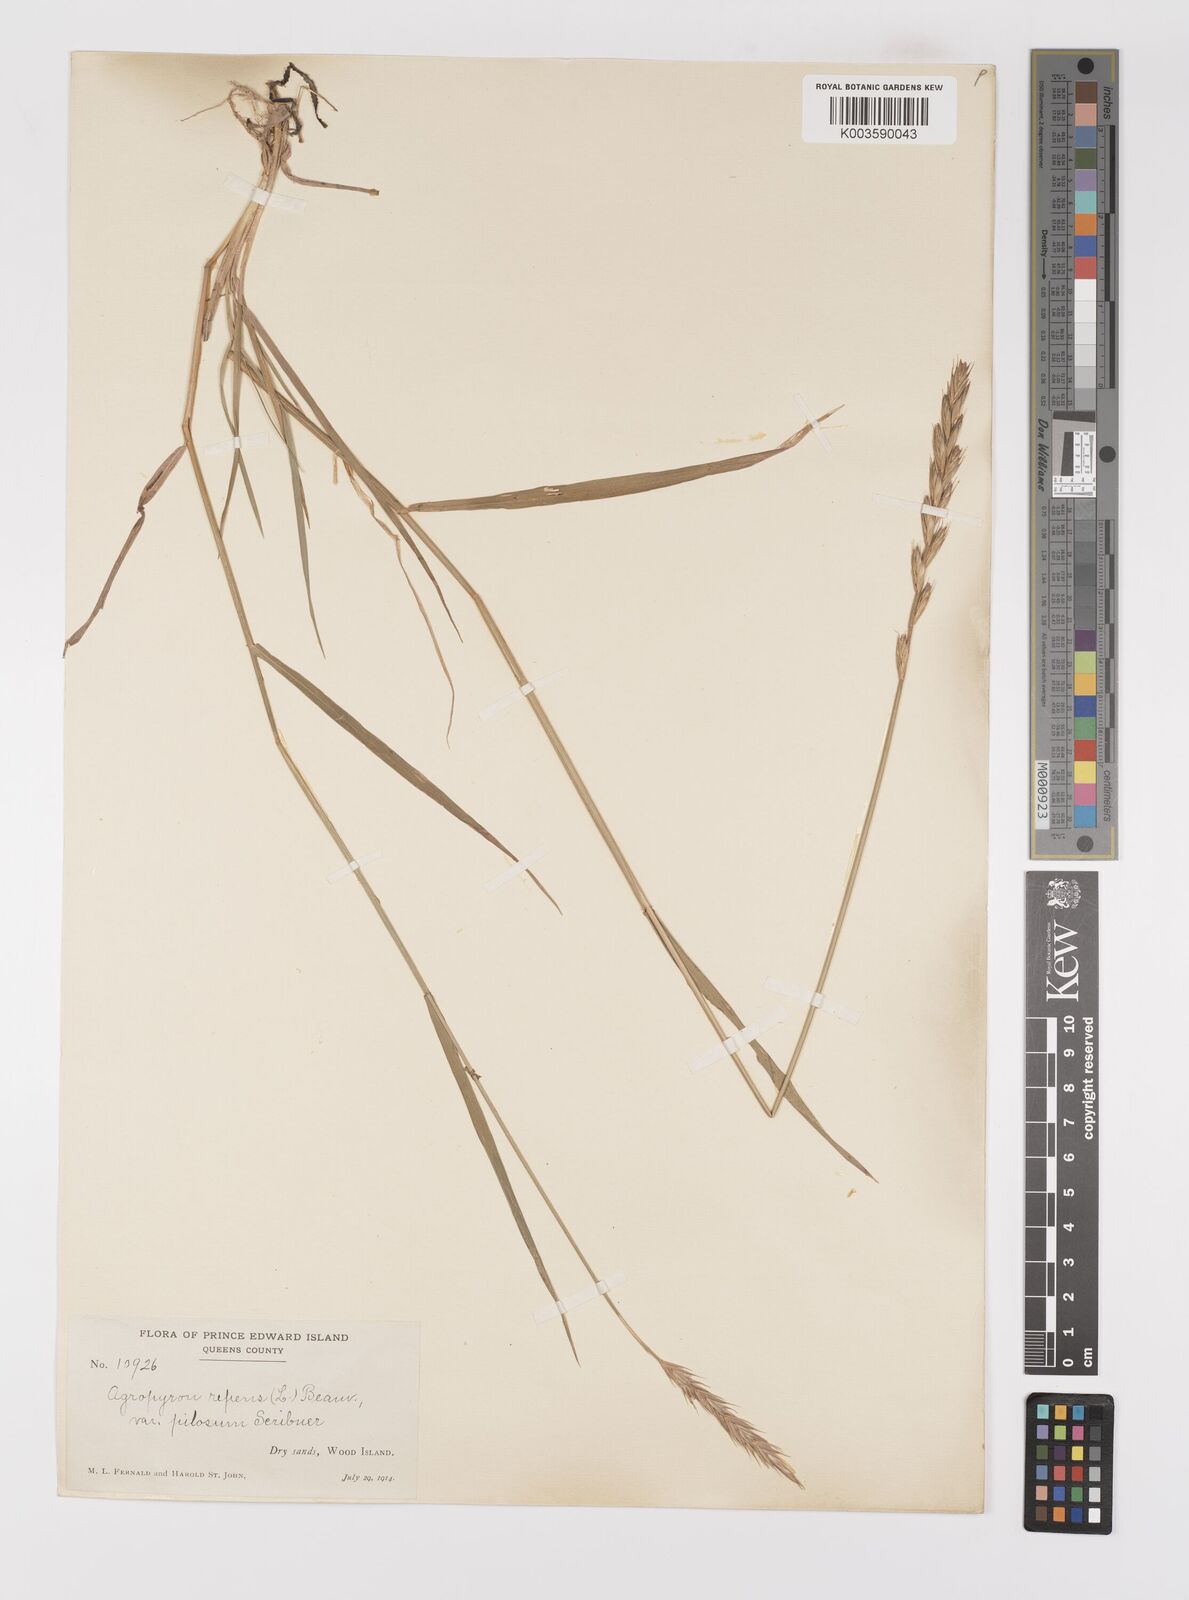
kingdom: Plantae
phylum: Tracheophyta
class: Liliopsida
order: Poales
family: Poaceae
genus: Elymus
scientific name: Elymus repens
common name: Quackgrass
